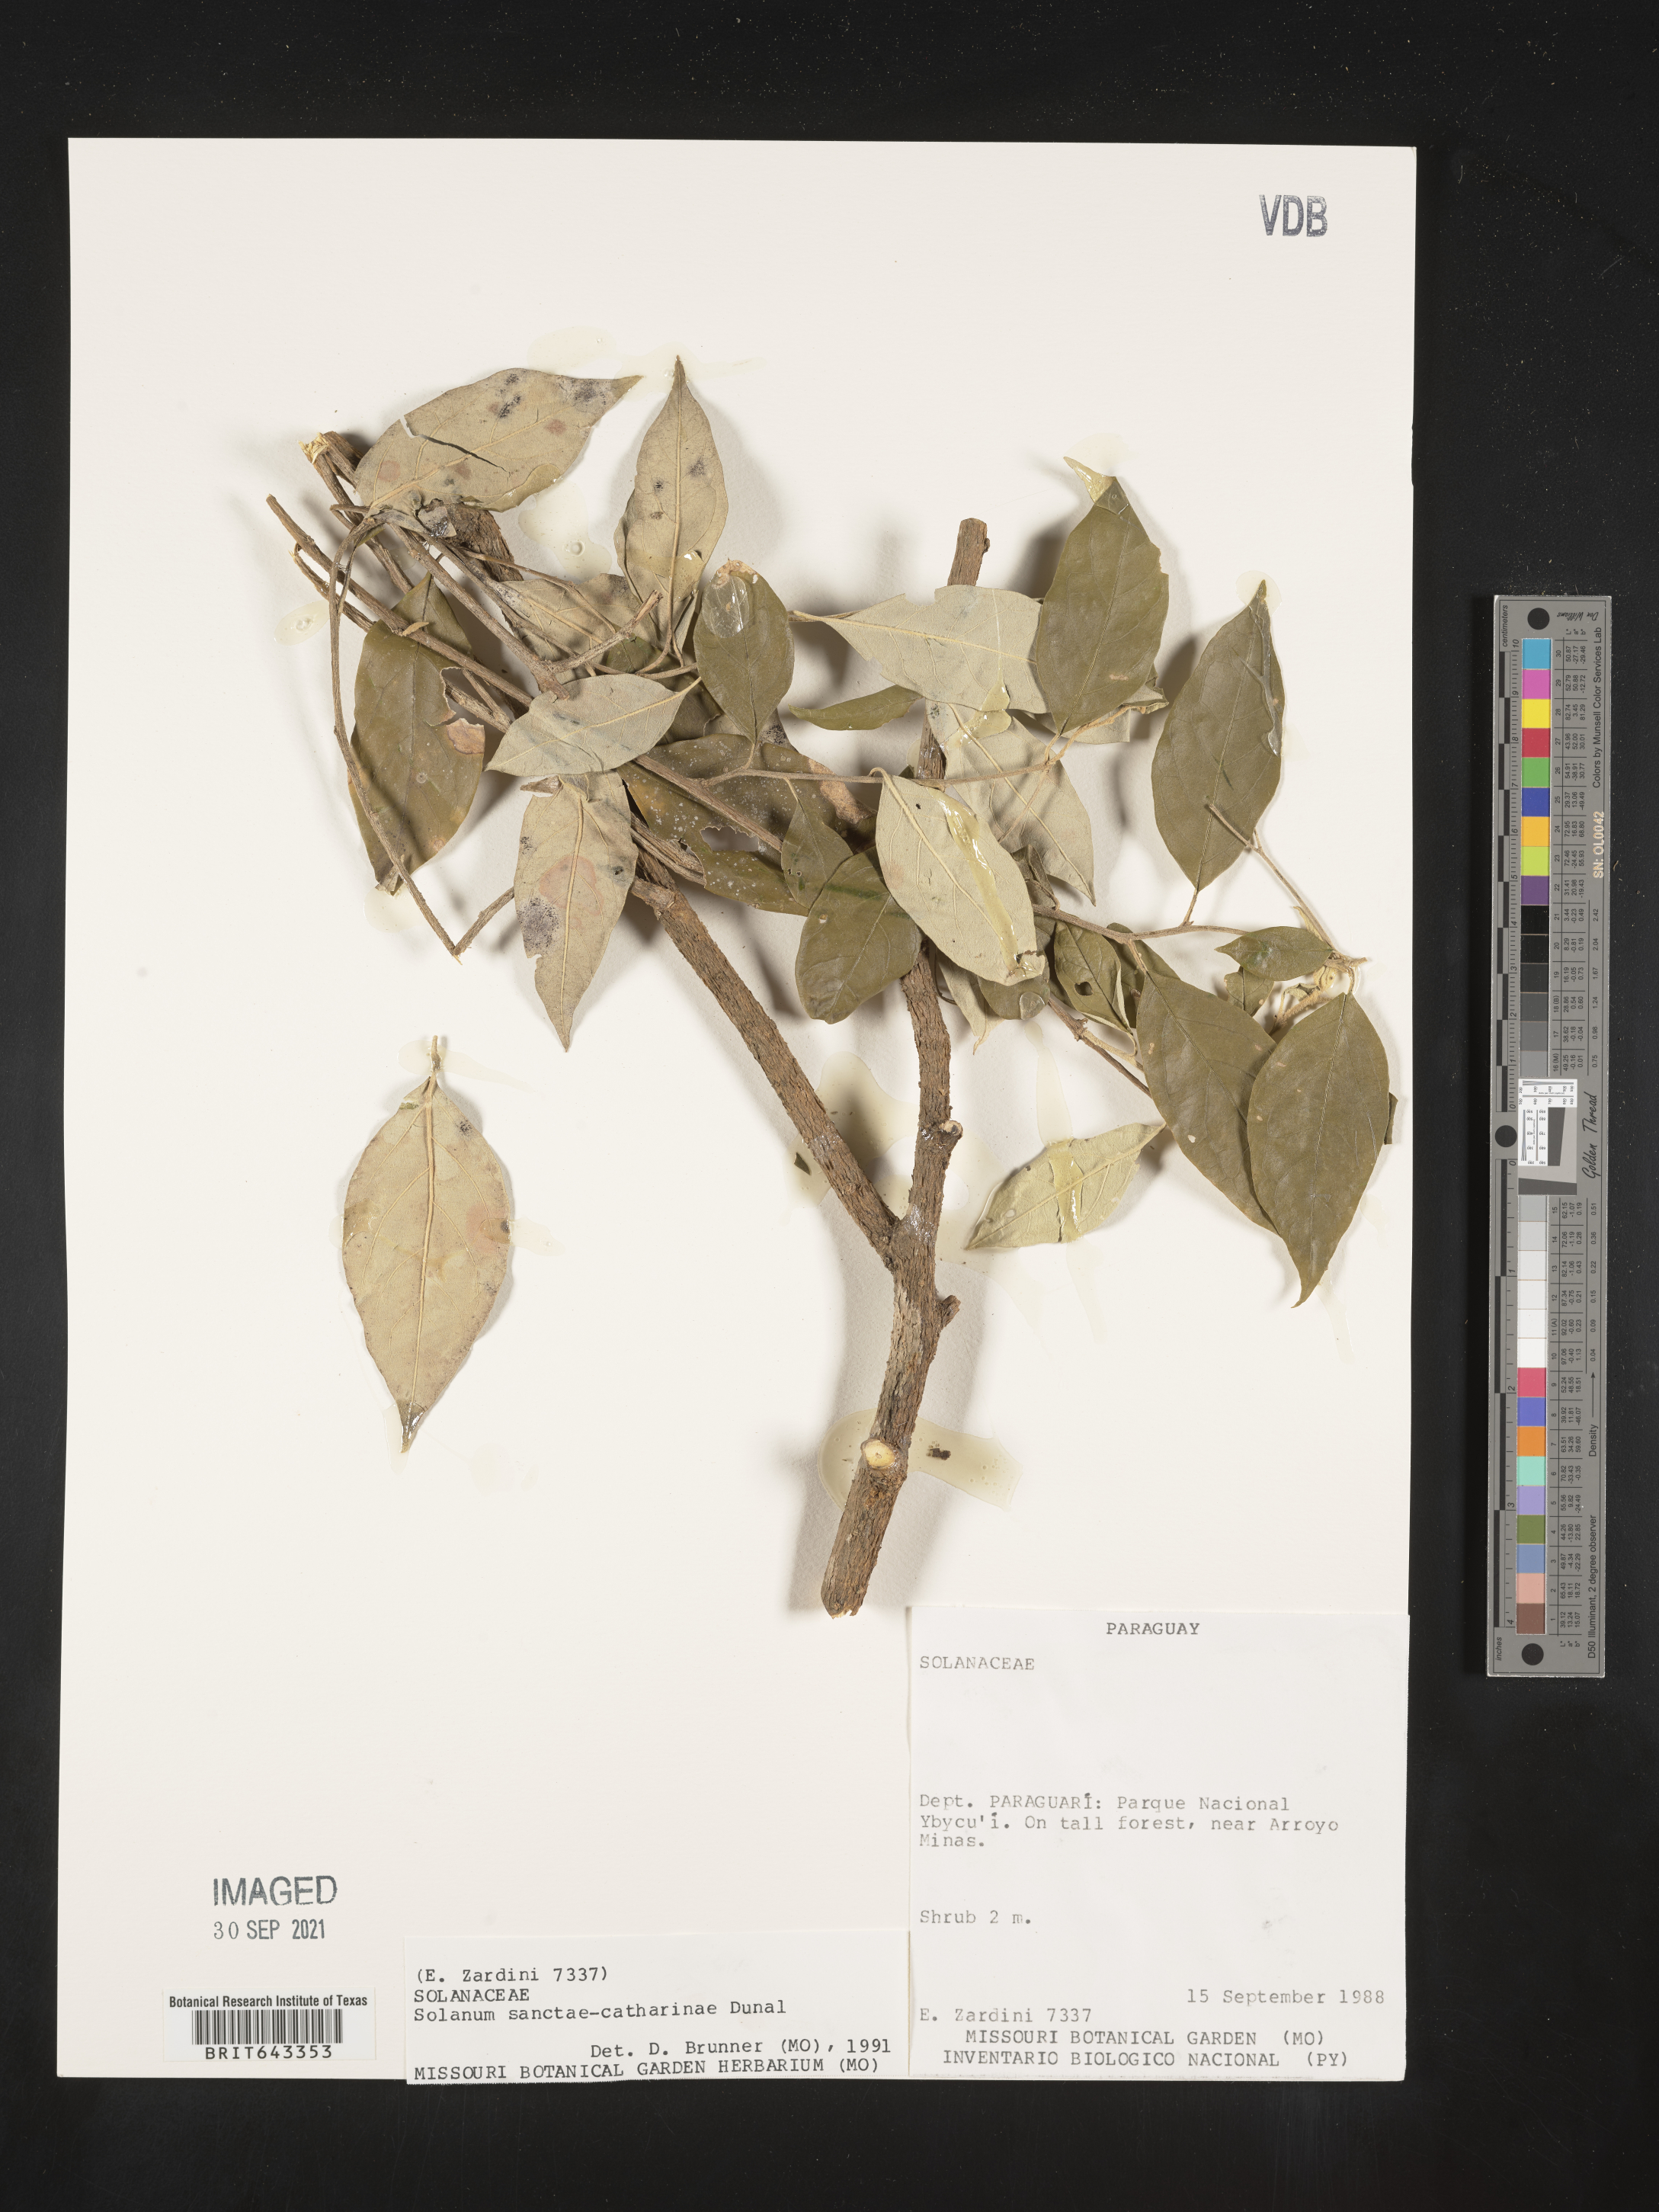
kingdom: Plantae
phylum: Tracheophyta
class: Magnoliopsida
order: Solanales
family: Solanaceae
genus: Solanum
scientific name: Solanum
